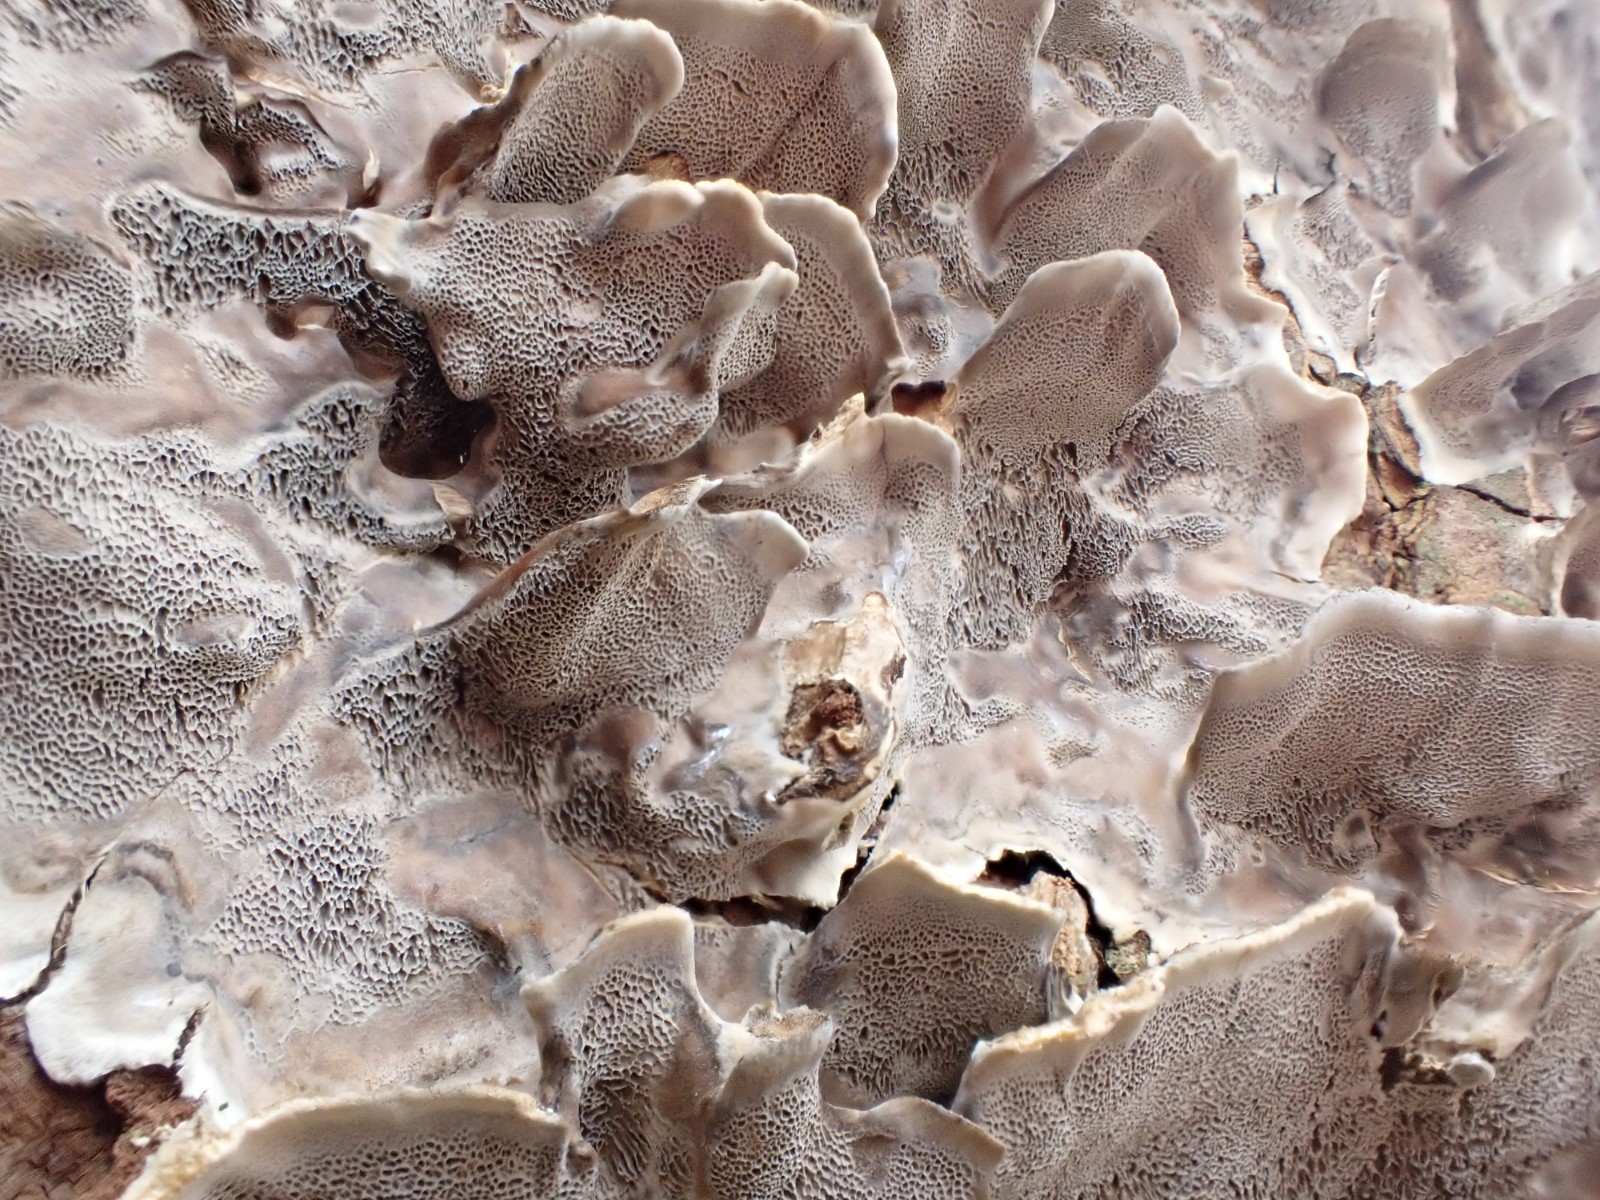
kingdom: Fungi
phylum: Basidiomycota
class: Agaricomycetes
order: Polyporales
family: Phanerochaetaceae
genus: Bjerkandera
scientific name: Bjerkandera adusta
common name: sveden sodporesvamp
